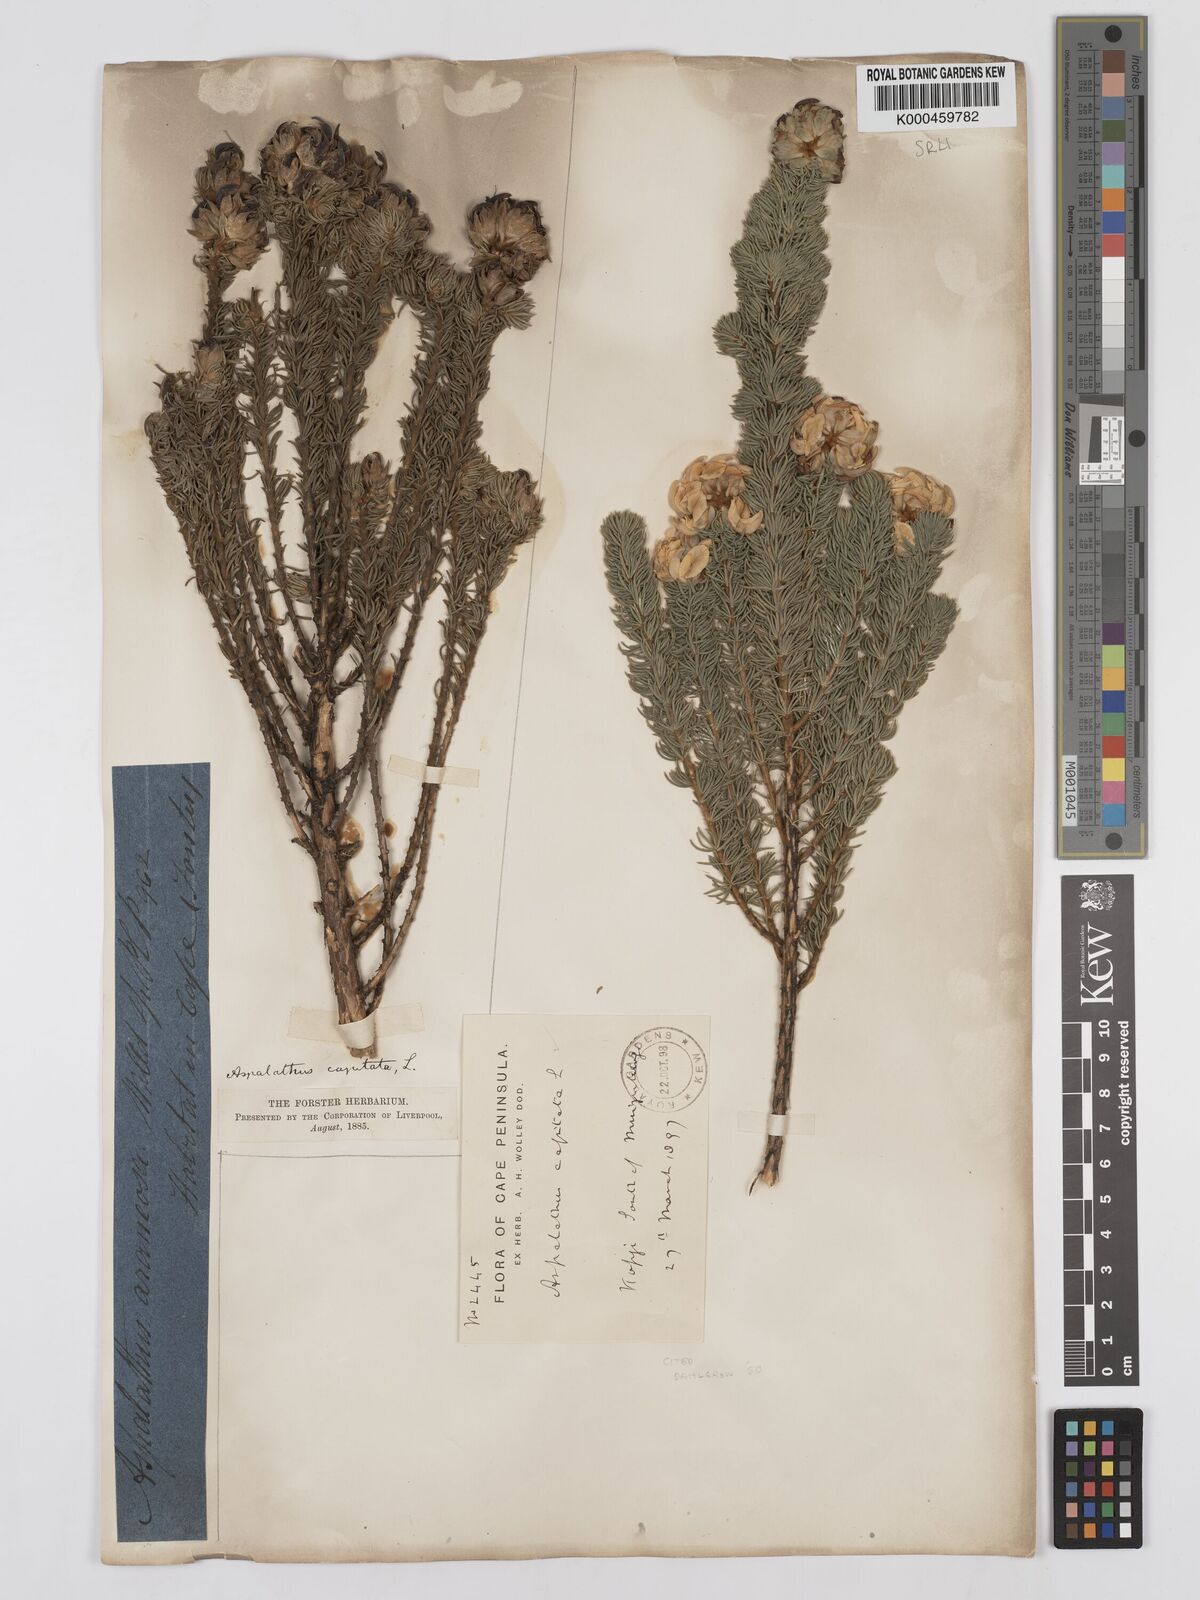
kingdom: Plantae
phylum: Tracheophyta
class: Magnoliopsida
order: Fabales
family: Fabaceae
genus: Aspalathus
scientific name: Aspalathus capitata
